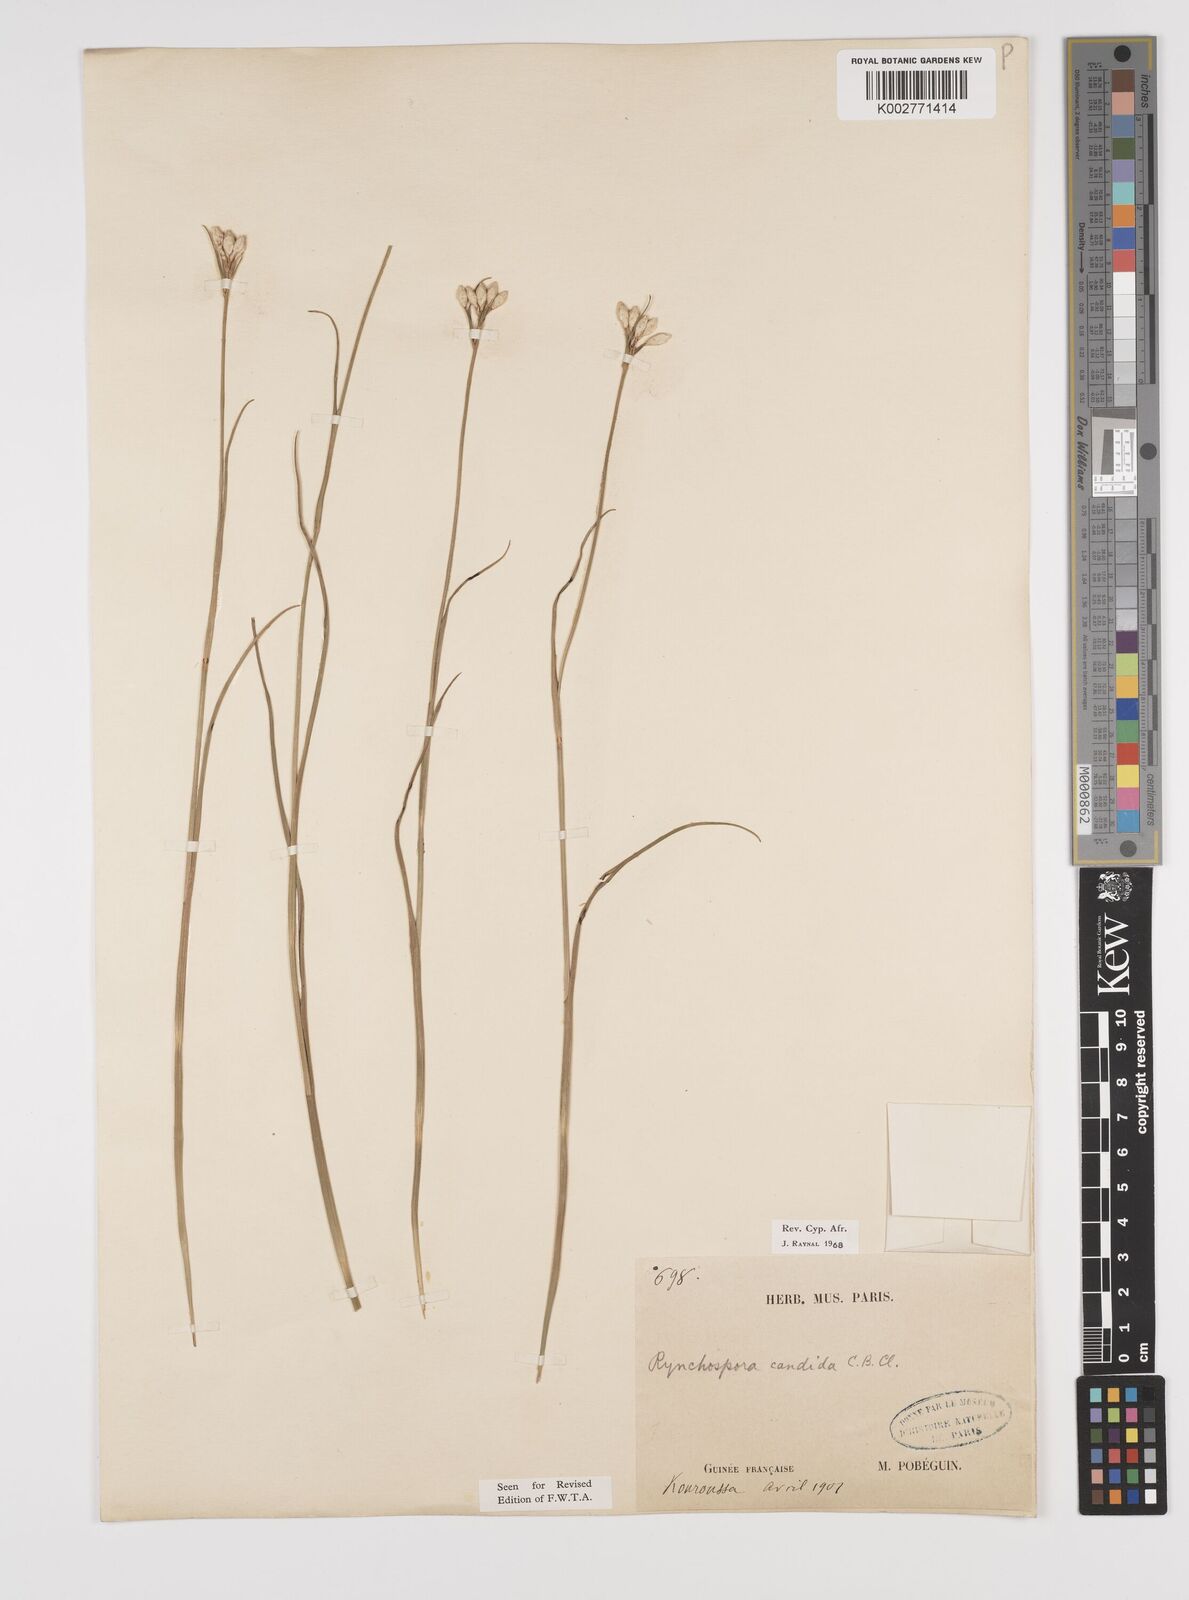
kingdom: Plantae
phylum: Tracheophyta
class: Liliopsida
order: Poales
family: Cyperaceae
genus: Rhynchospora
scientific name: Rhynchospora candida
